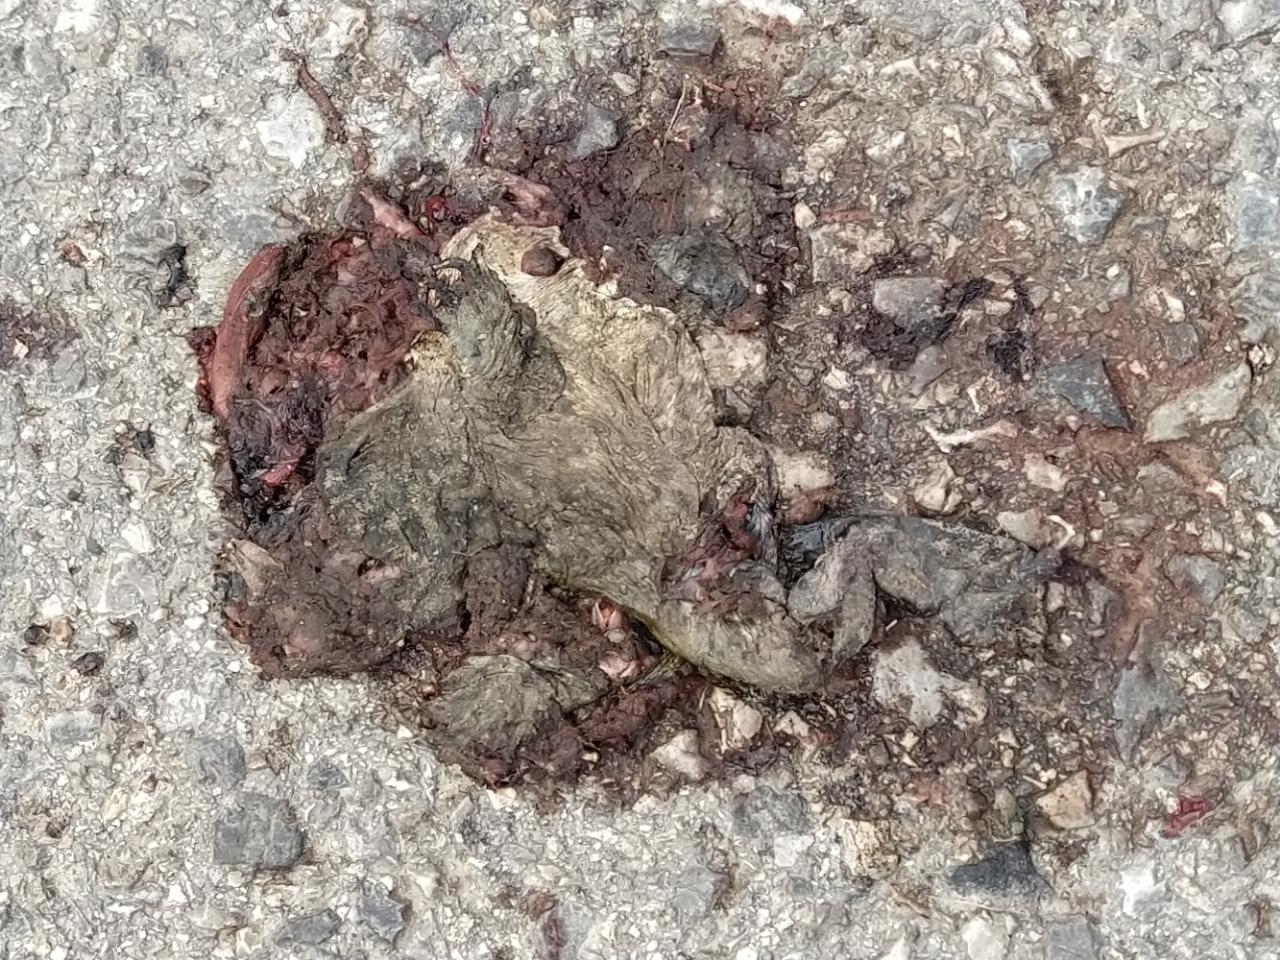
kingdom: Animalia
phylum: Chordata
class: Amphibia
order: Anura
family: Bufonidae
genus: Bufo
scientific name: Bufo bufo
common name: Common toad
